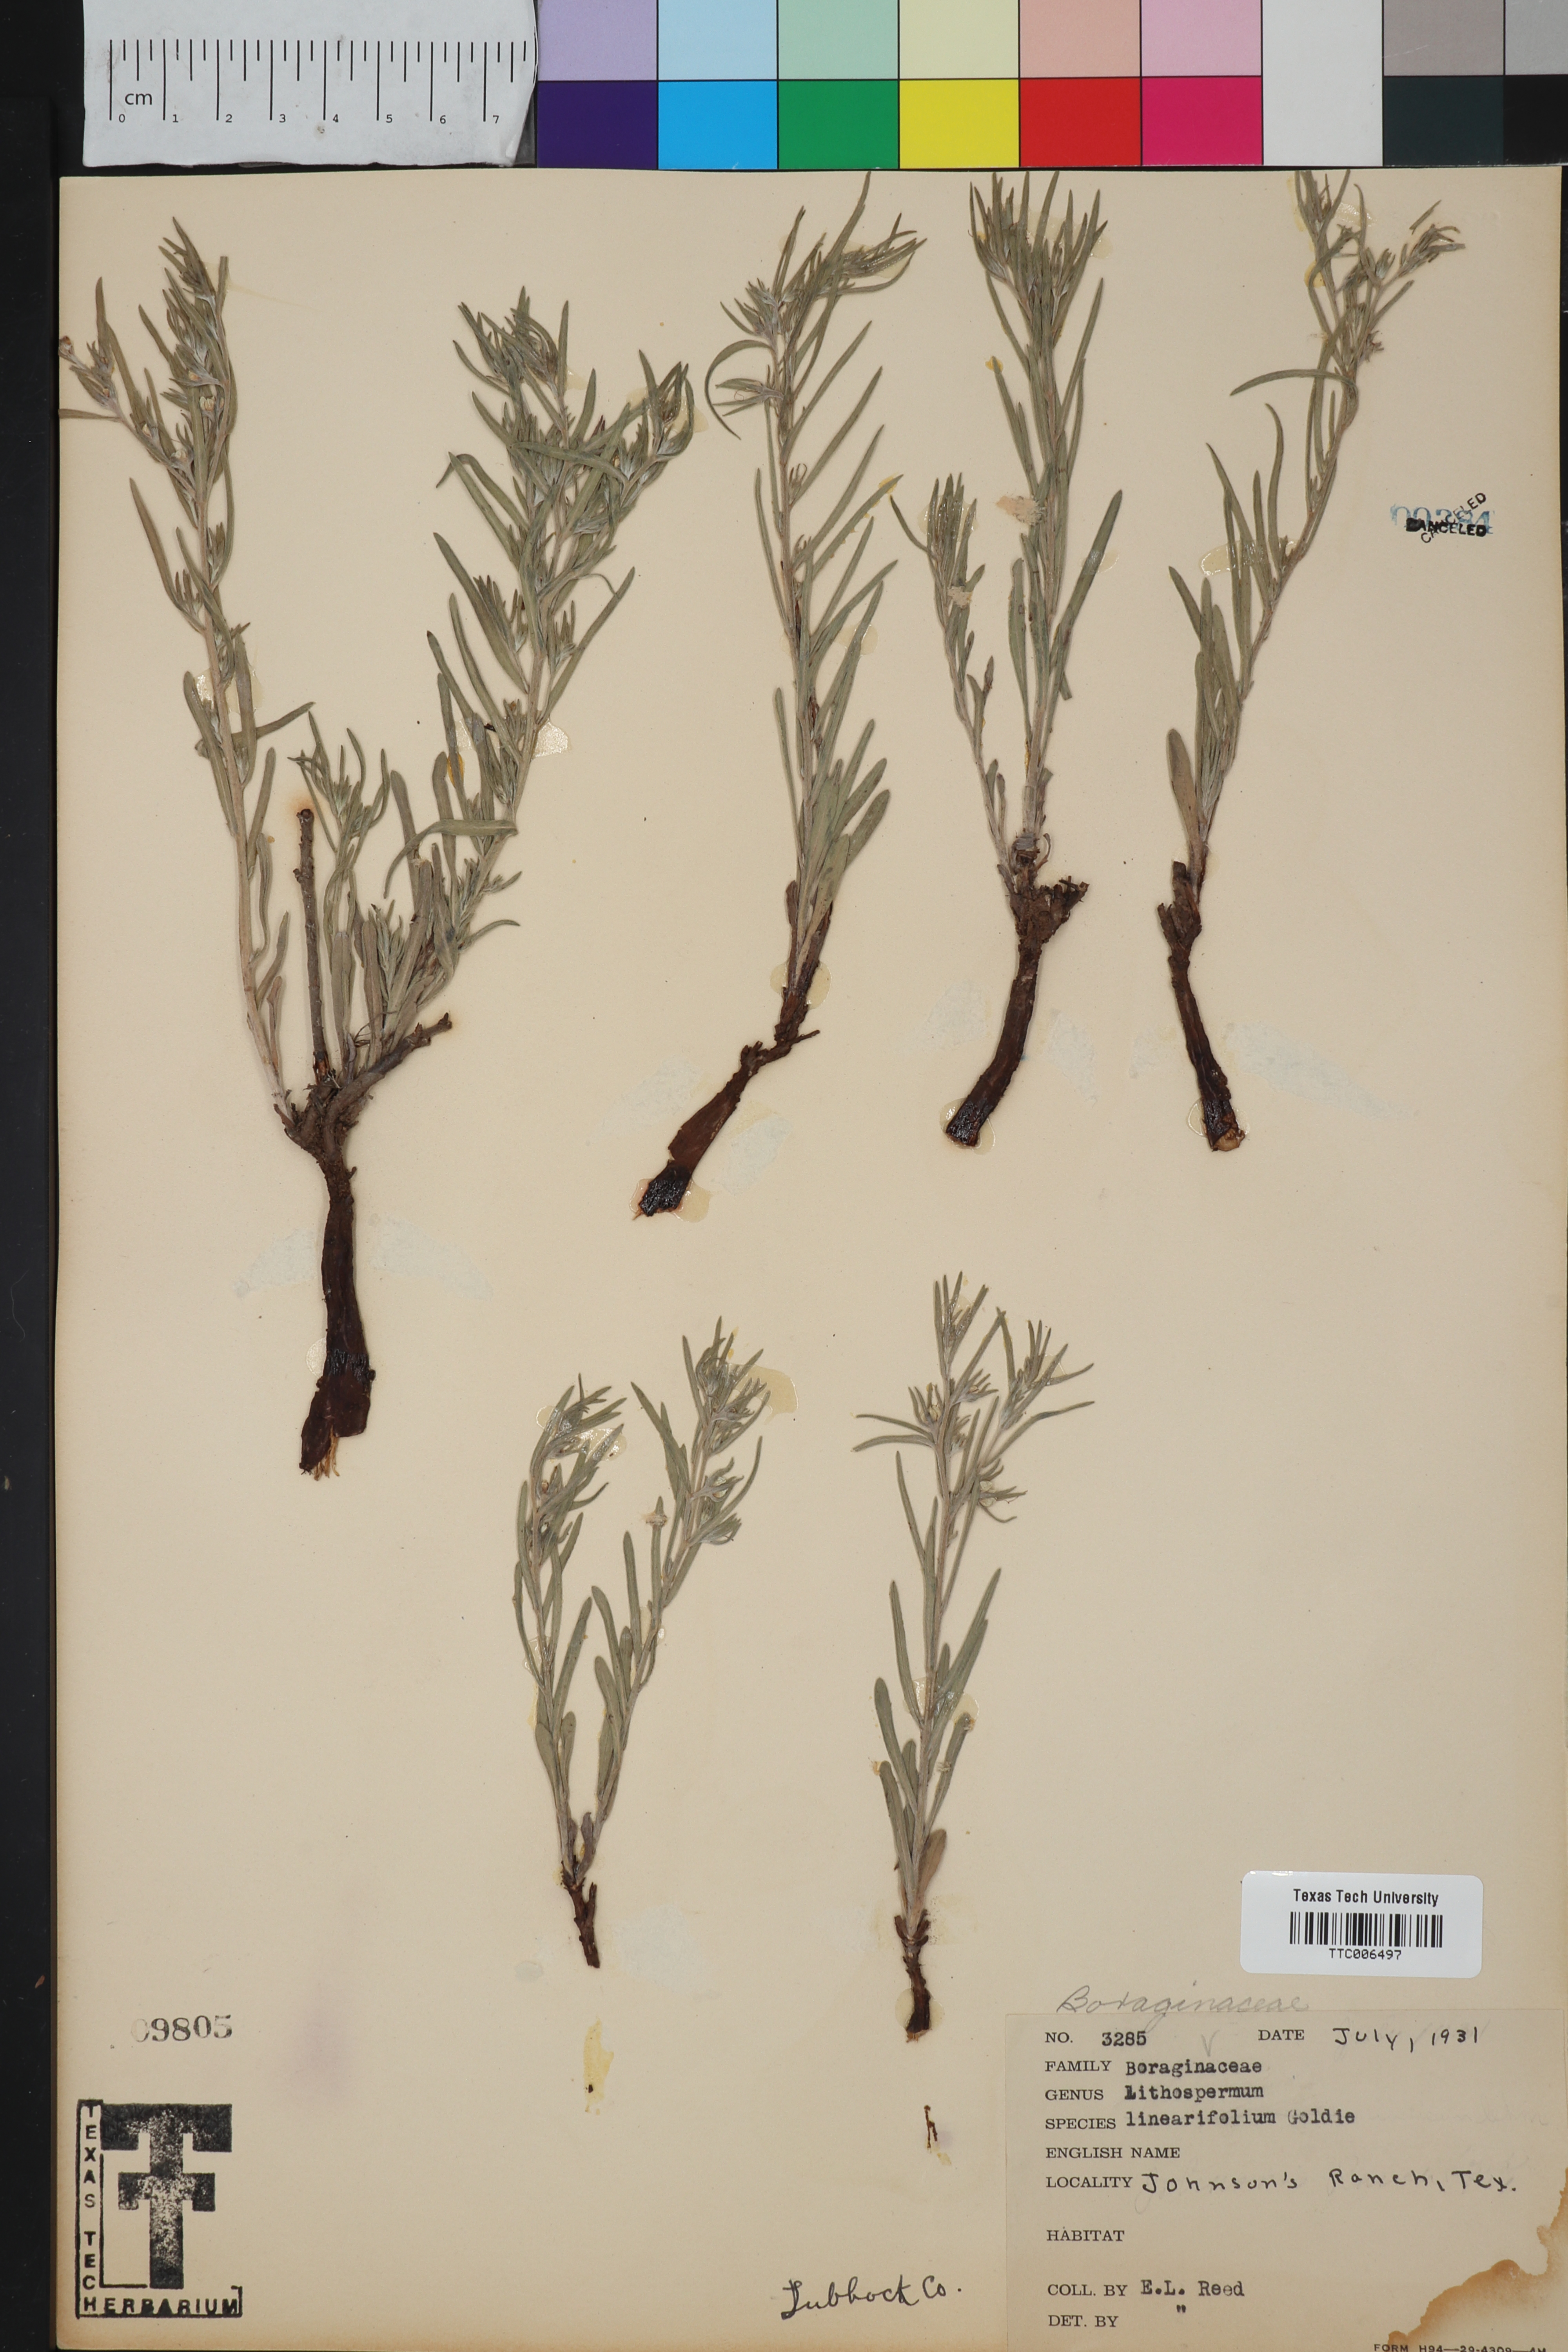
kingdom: Plantae
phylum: Tracheophyta
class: Magnoliopsida
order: Boraginales
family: Boraginaceae
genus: Lithospermum
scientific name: Lithospermum incisum
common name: Fringed gromwell
